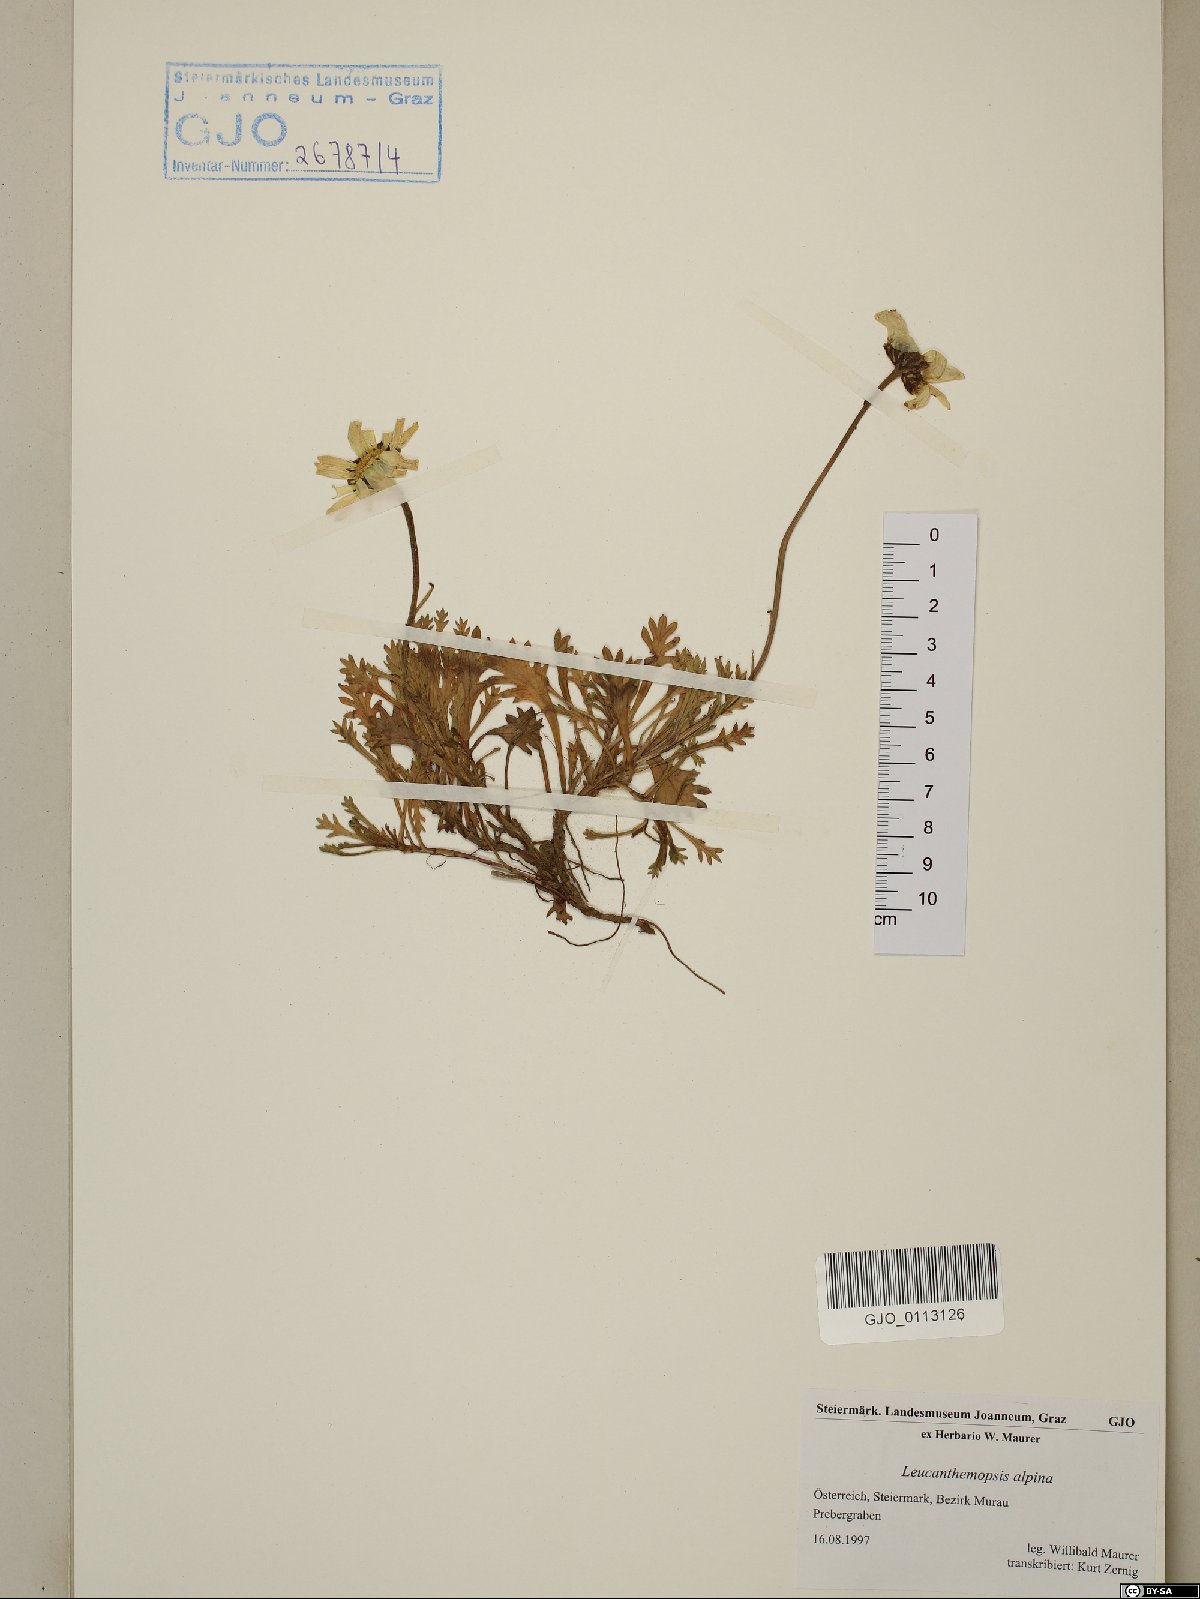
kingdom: Plantae
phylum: Tracheophyta
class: Magnoliopsida
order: Asterales
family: Asteraceae
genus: Leucanthemopsis
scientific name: Leucanthemopsis alpina
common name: Alpine moon daisy
